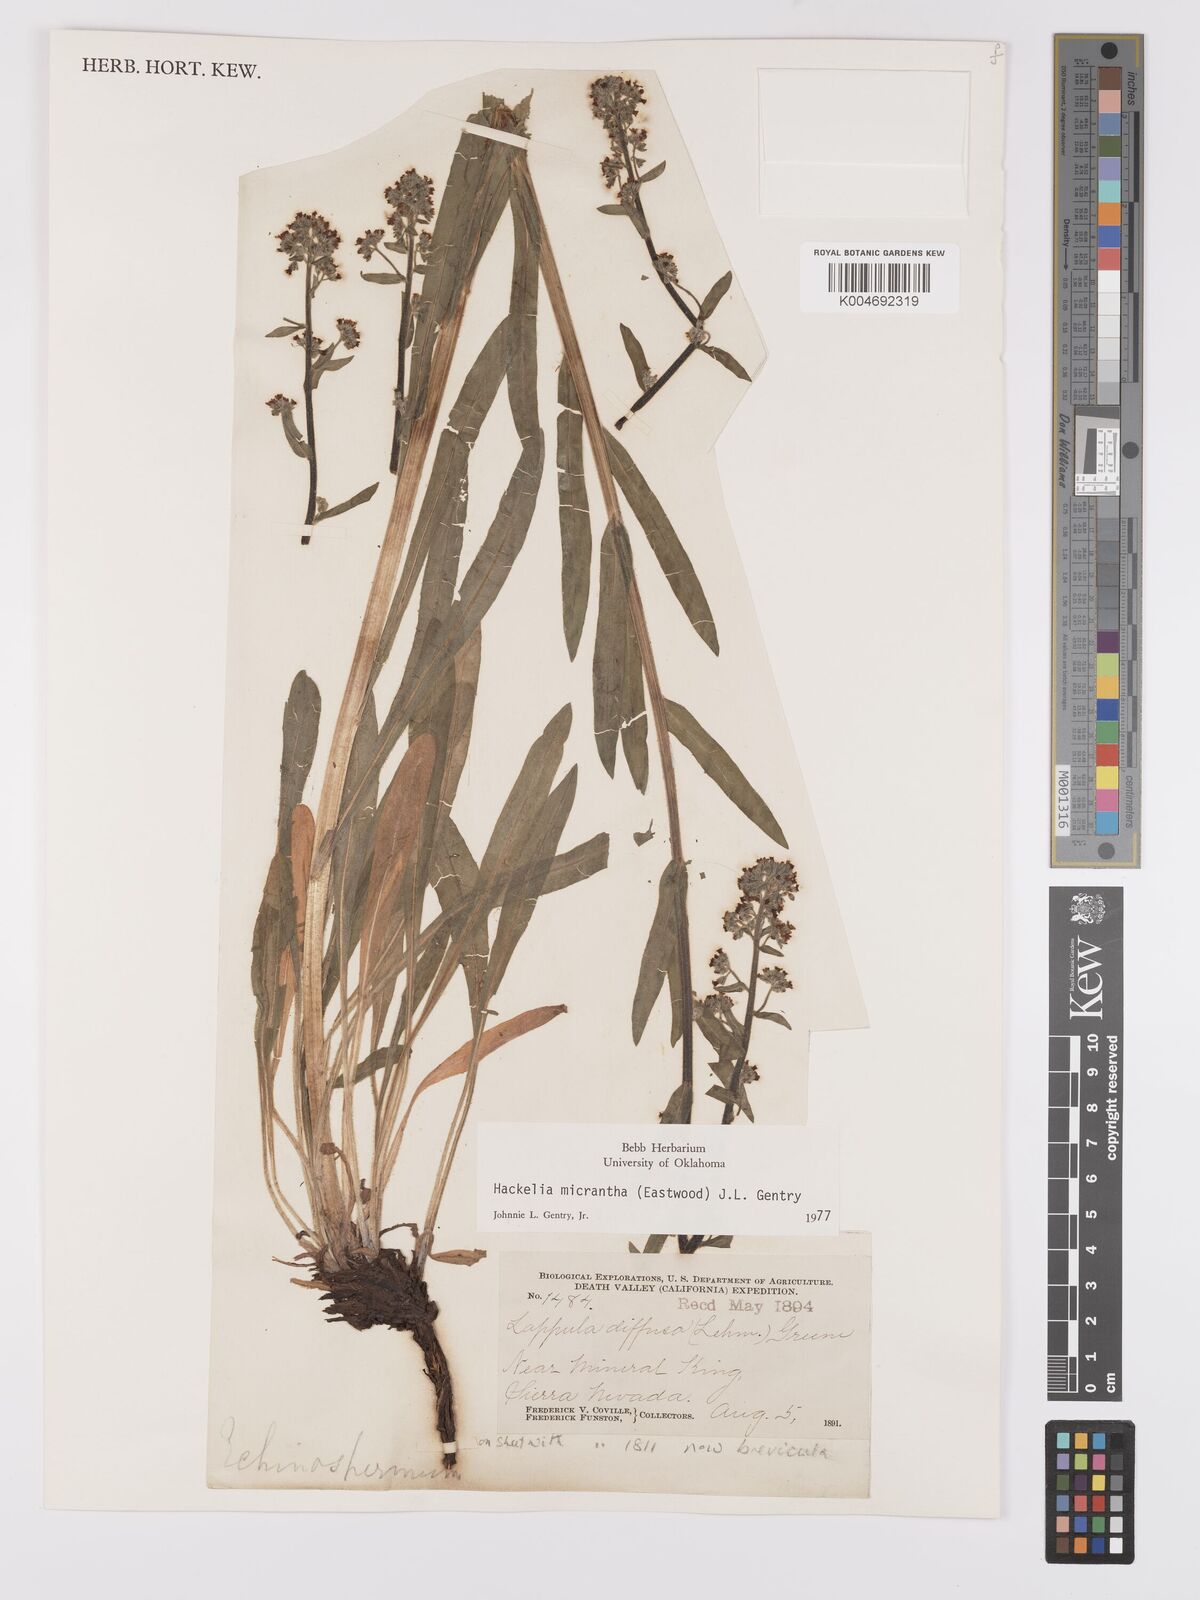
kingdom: Plantae
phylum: Tracheophyta
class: Magnoliopsida
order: Boraginales
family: Boraginaceae
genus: Hackelia
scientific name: Hackelia micrantha
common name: Meadow stickseed
